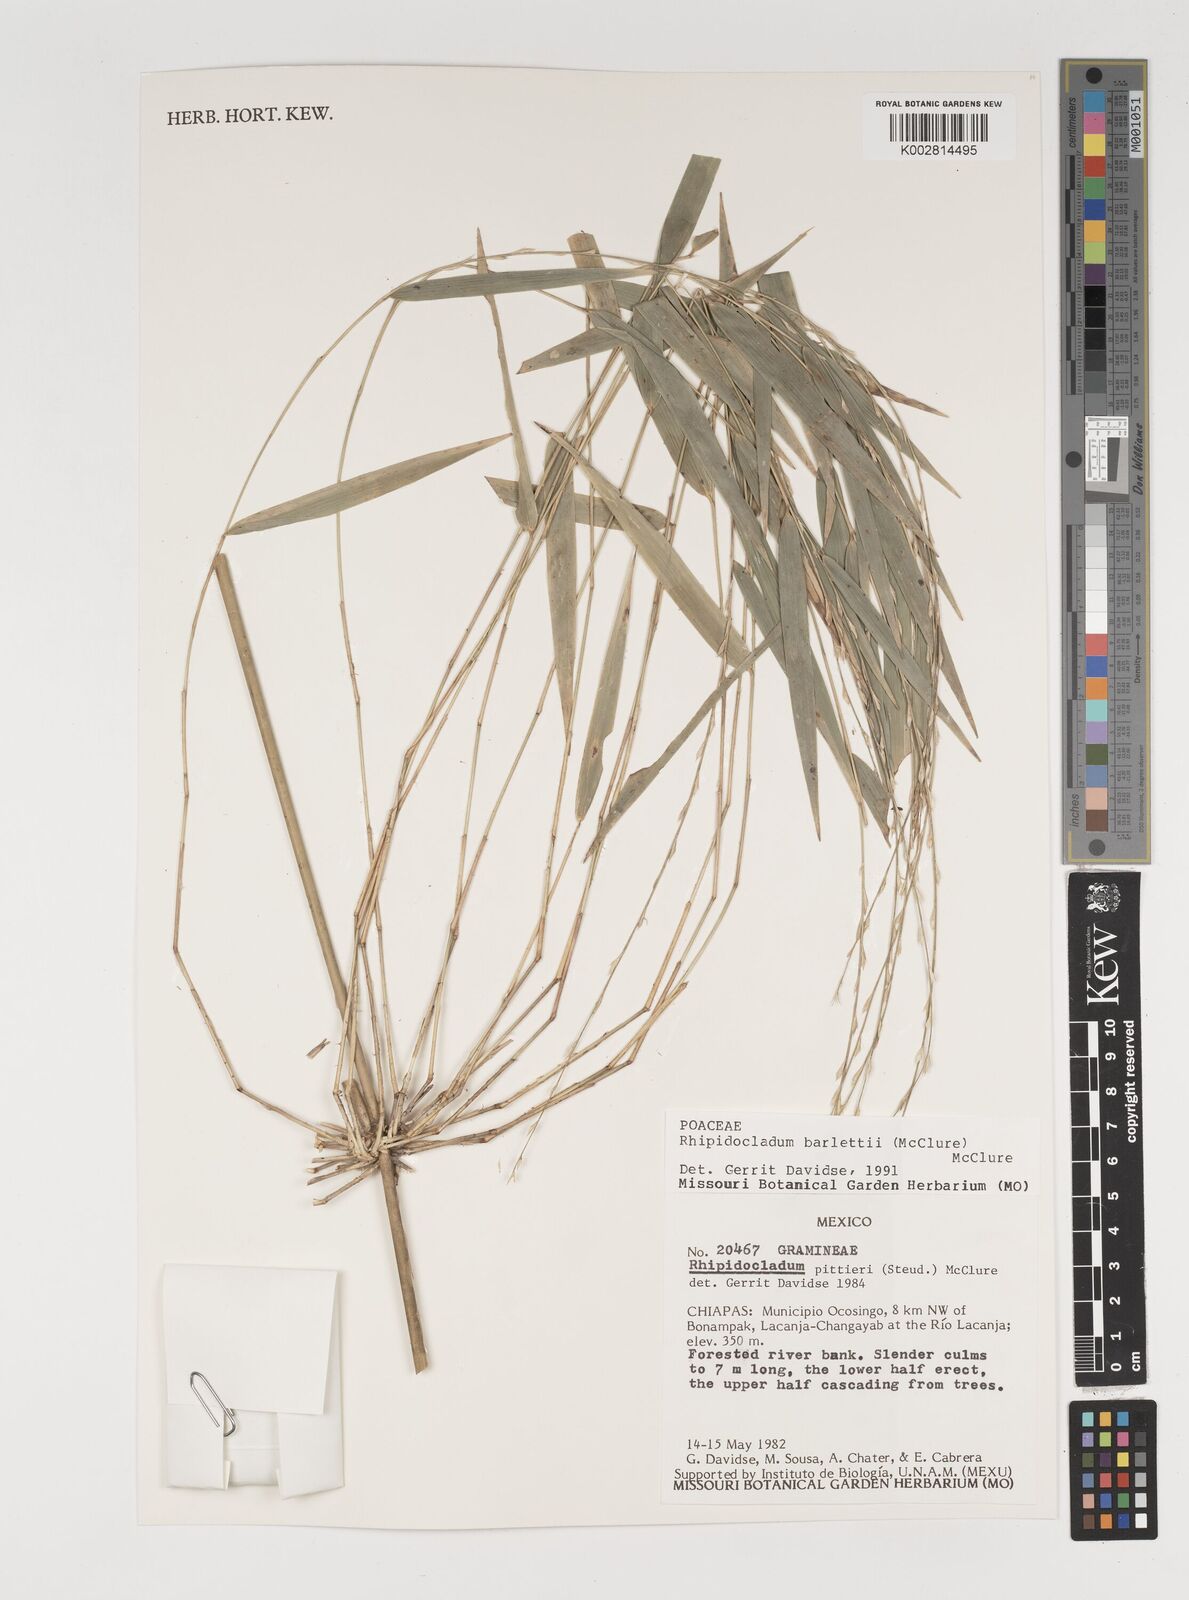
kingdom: Plantae
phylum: Tracheophyta
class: Liliopsida
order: Poales
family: Poaceae
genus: Rhipidocladum
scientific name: Rhipidocladum bartlettii
